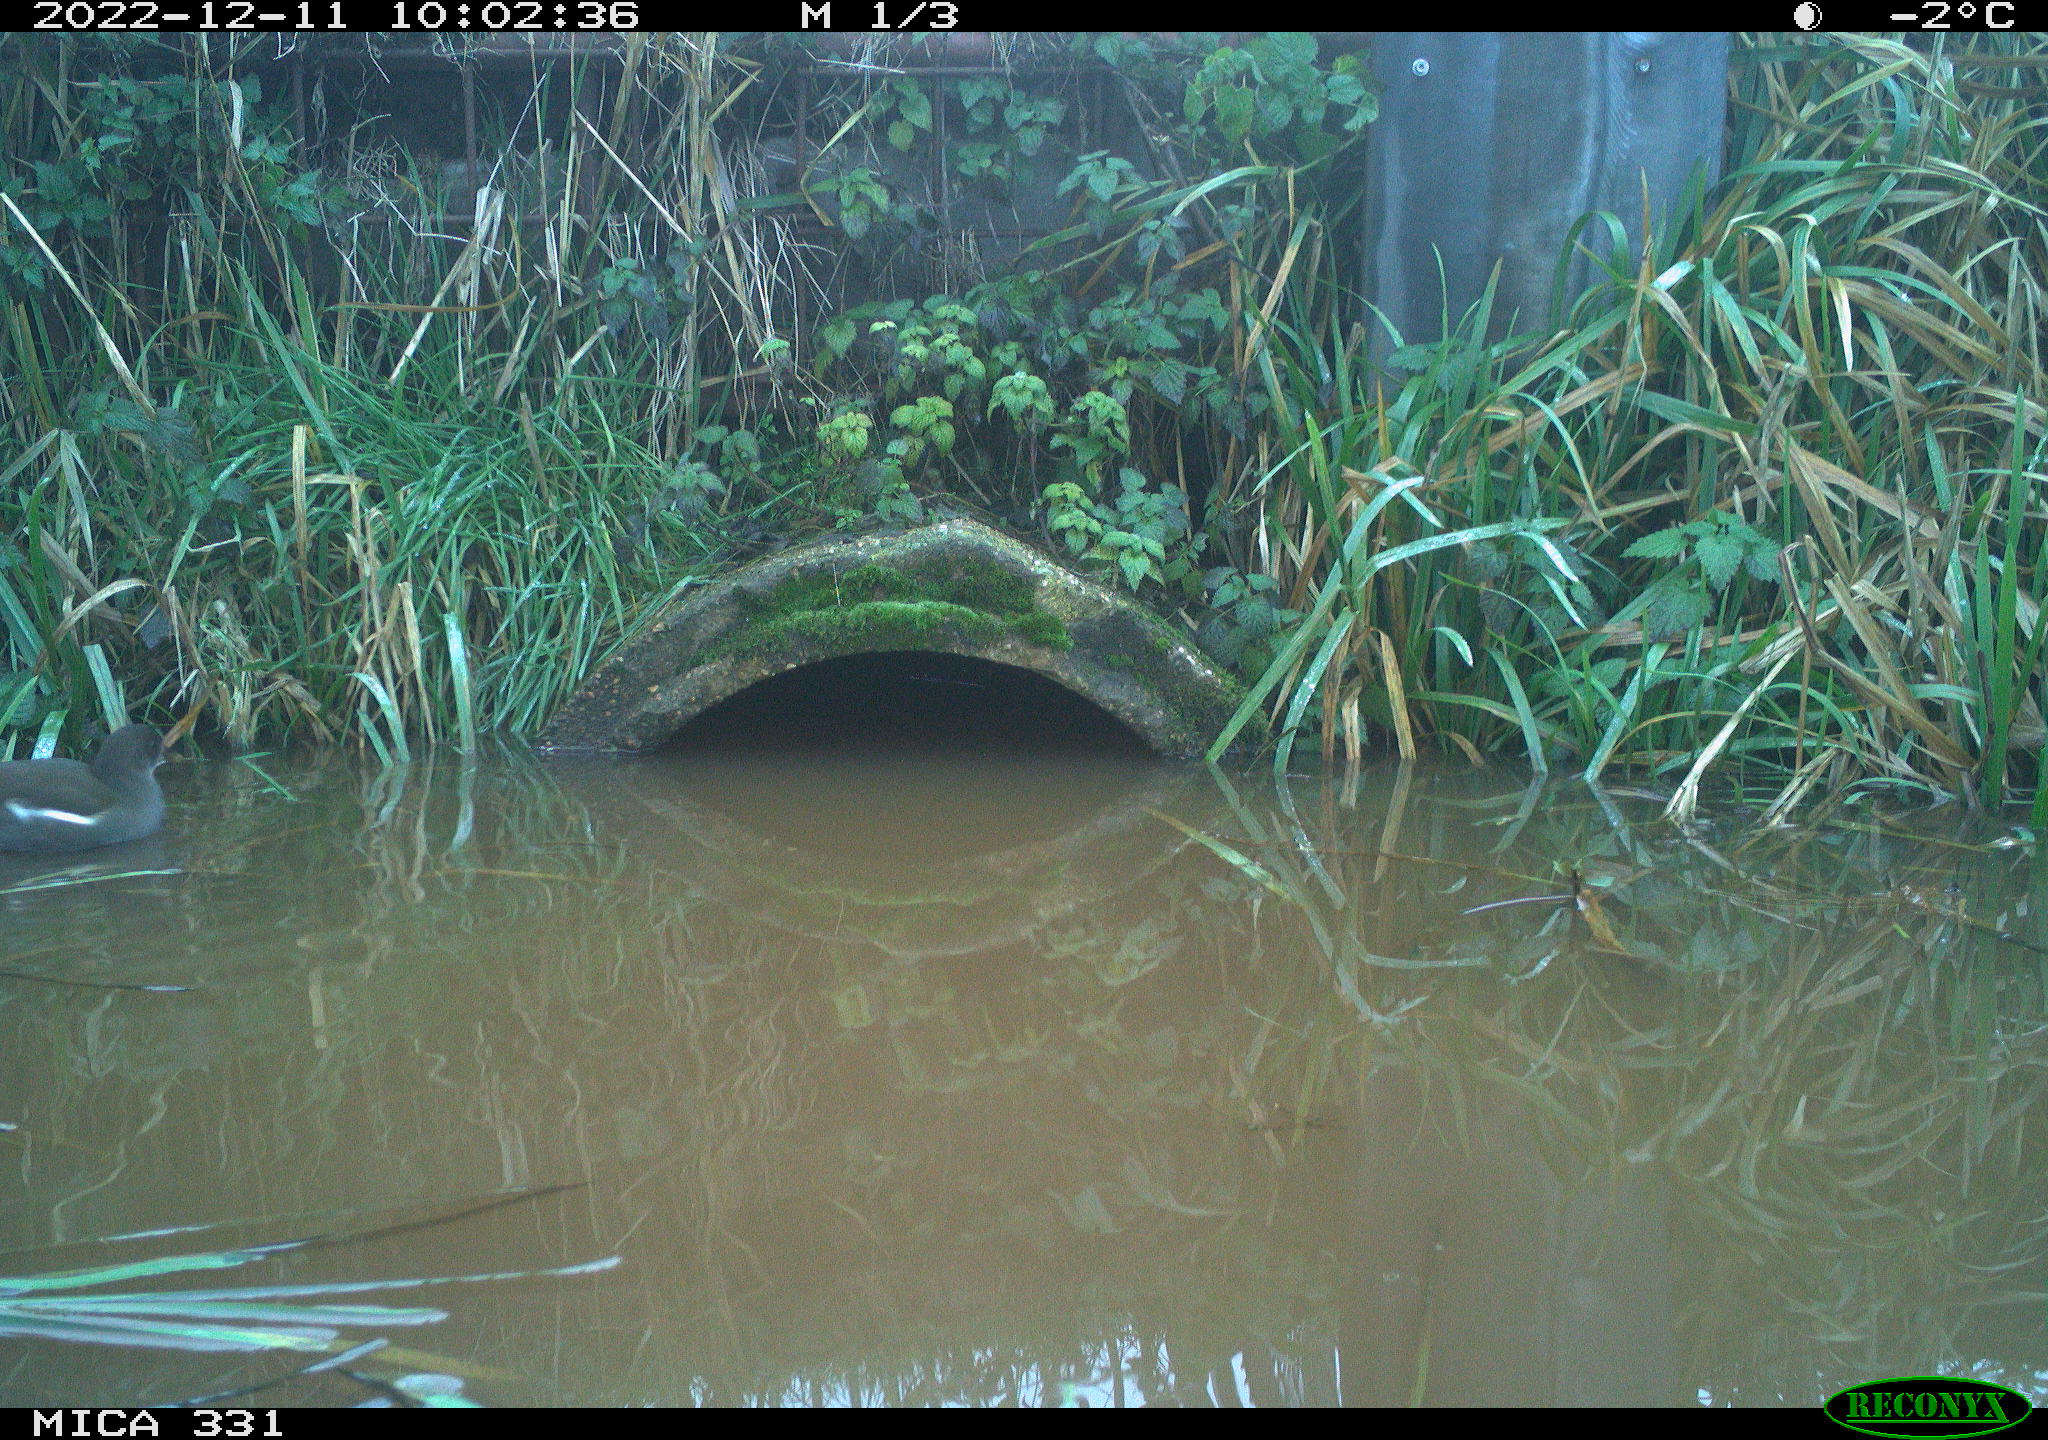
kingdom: Animalia
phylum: Chordata
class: Aves
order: Gruiformes
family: Rallidae
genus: Gallinula
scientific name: Gallinula chloropus
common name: Common moorhen
